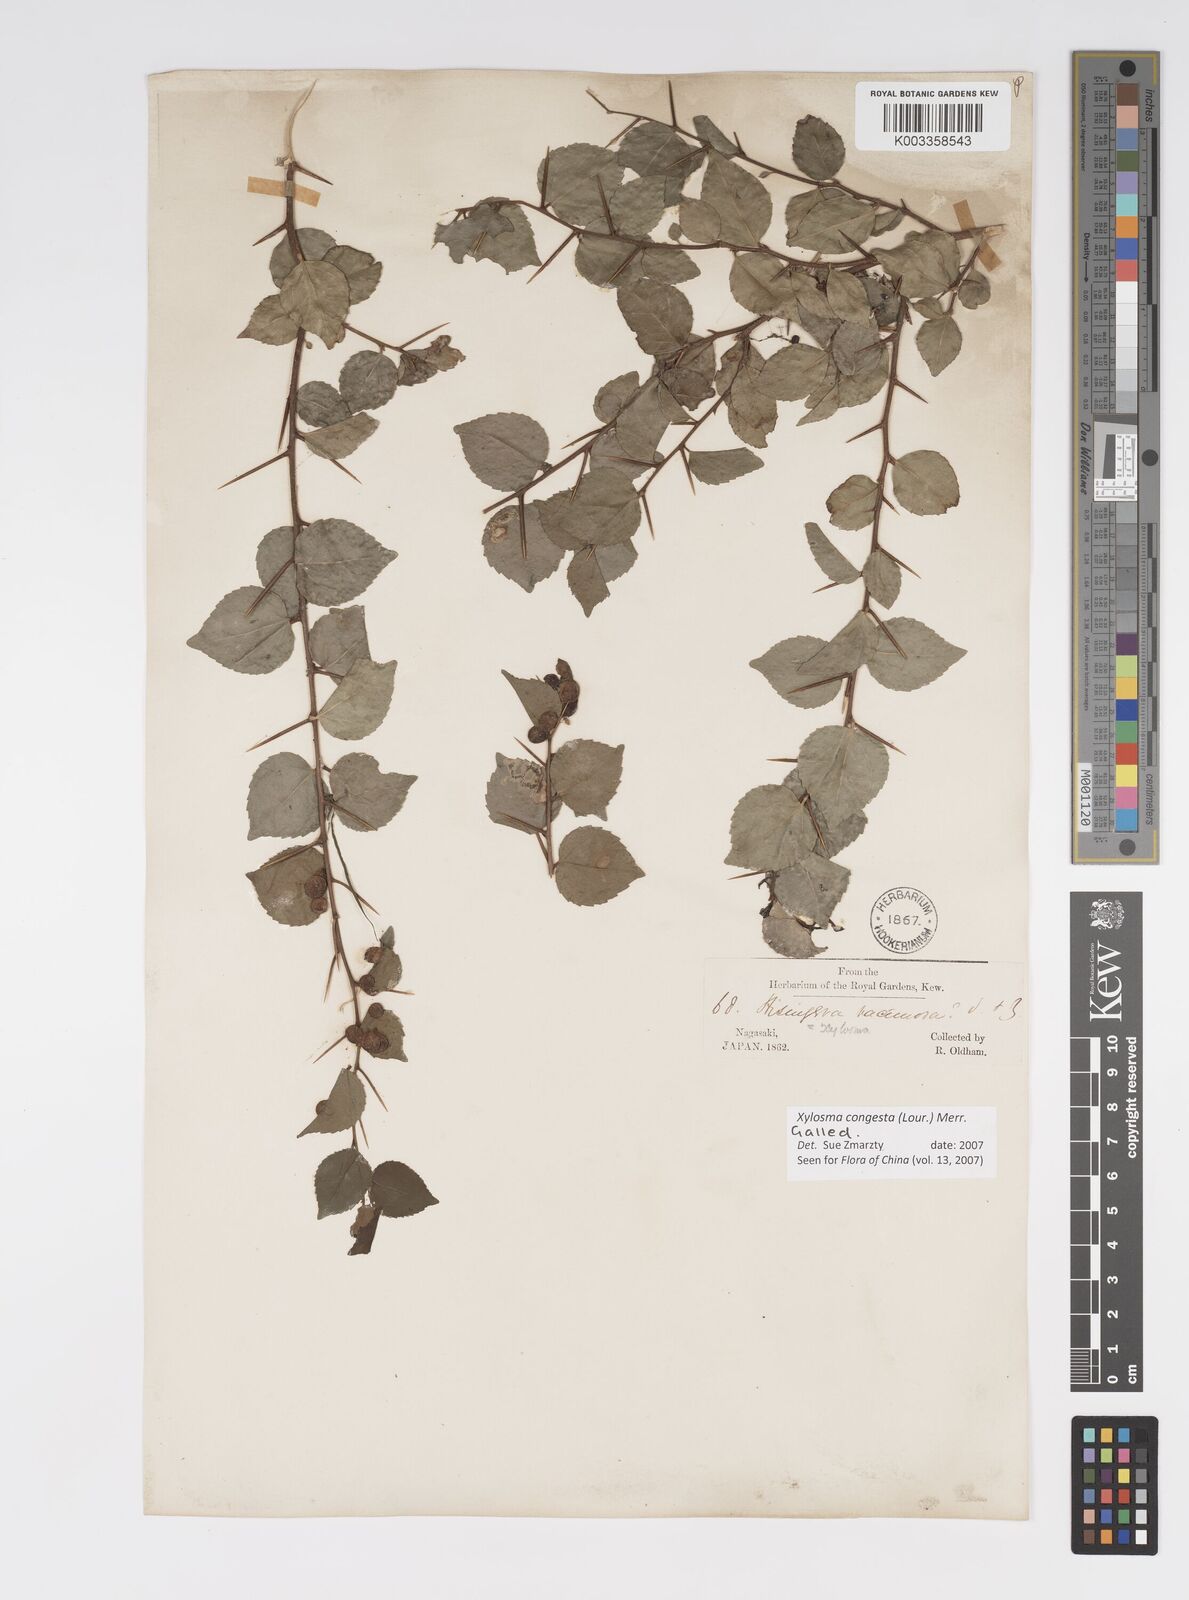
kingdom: Plantae
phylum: Tracheophyta
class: Magnoliopsida
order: Malpighiales
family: Salicaceae
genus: Xylosma
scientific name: Xylosma racemosum
